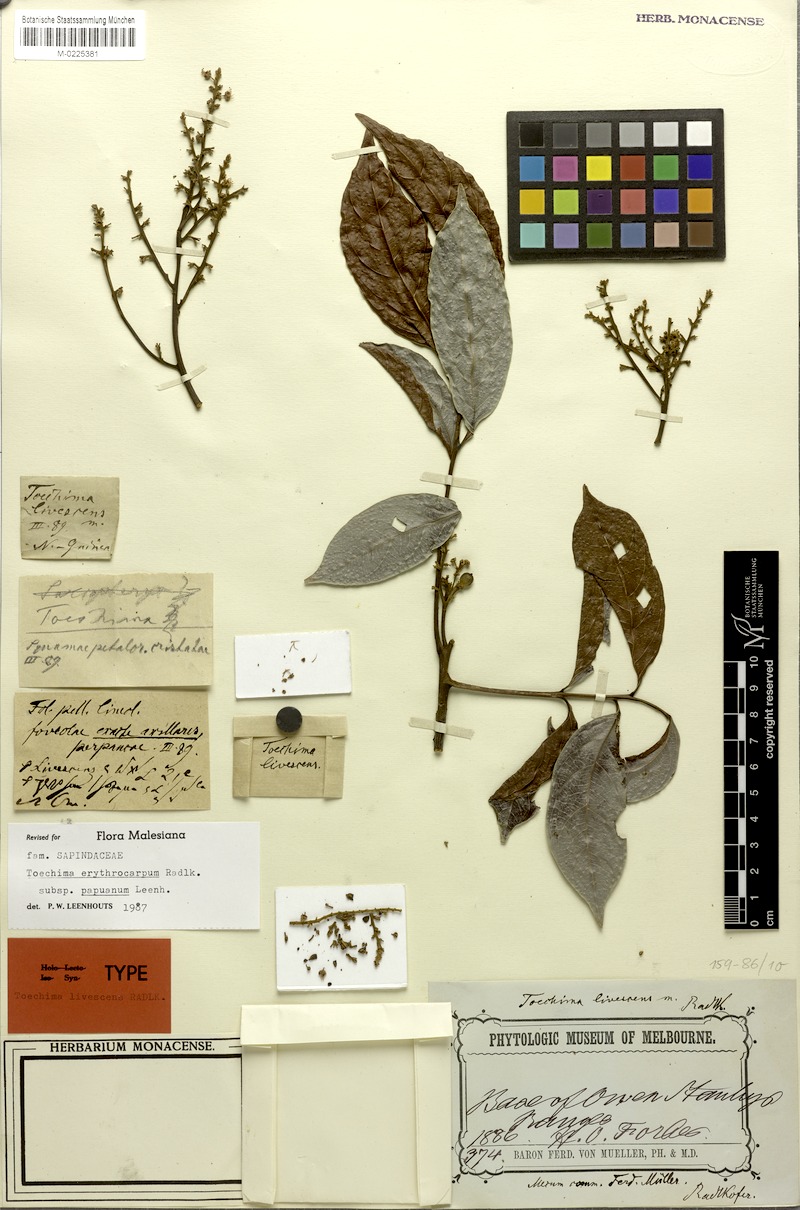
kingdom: Plantae
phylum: Tracheophyta
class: Magnoliopsida
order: Sapindales
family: Sapindaceae
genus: Toechima
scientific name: Toechima erythrocarpum
